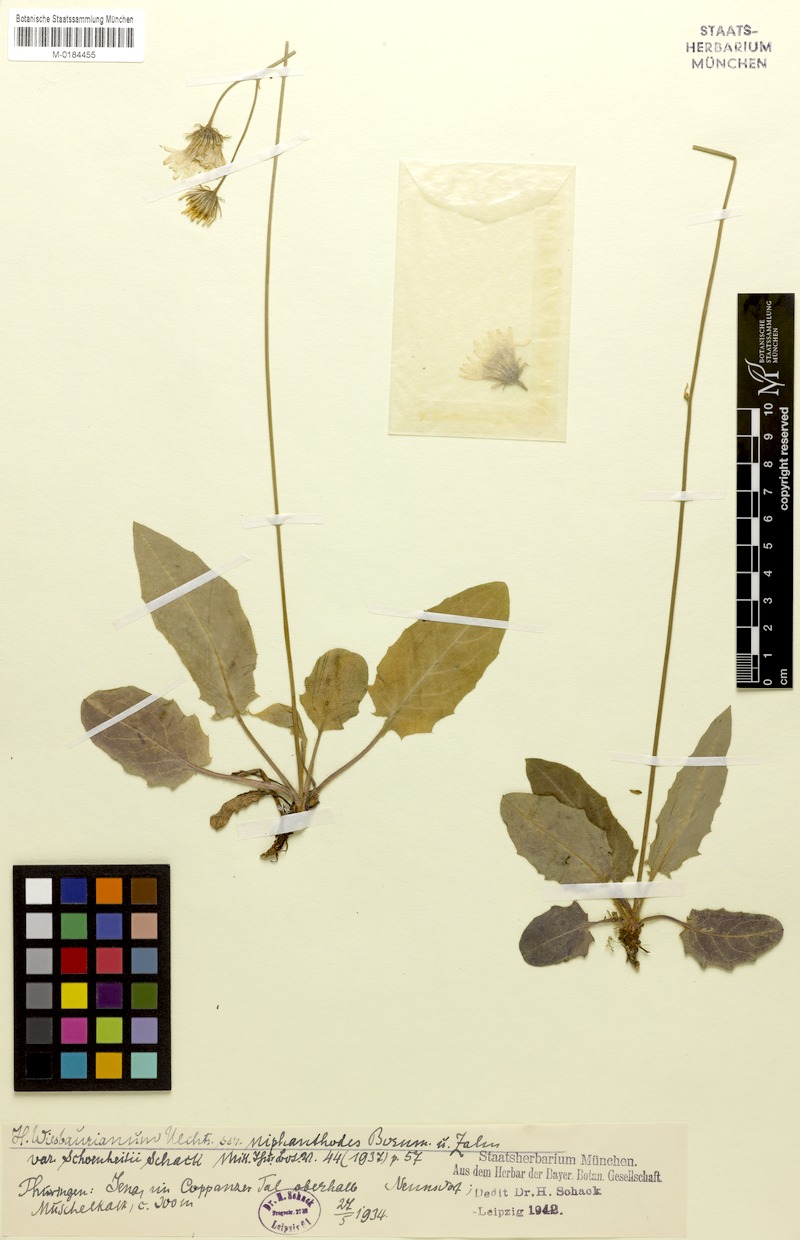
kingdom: Plantae
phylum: Tracheophyta
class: Magnoliopsida
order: Asterales
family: Asteraceae
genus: Hieracium
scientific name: Hieracium hypochoeroides
